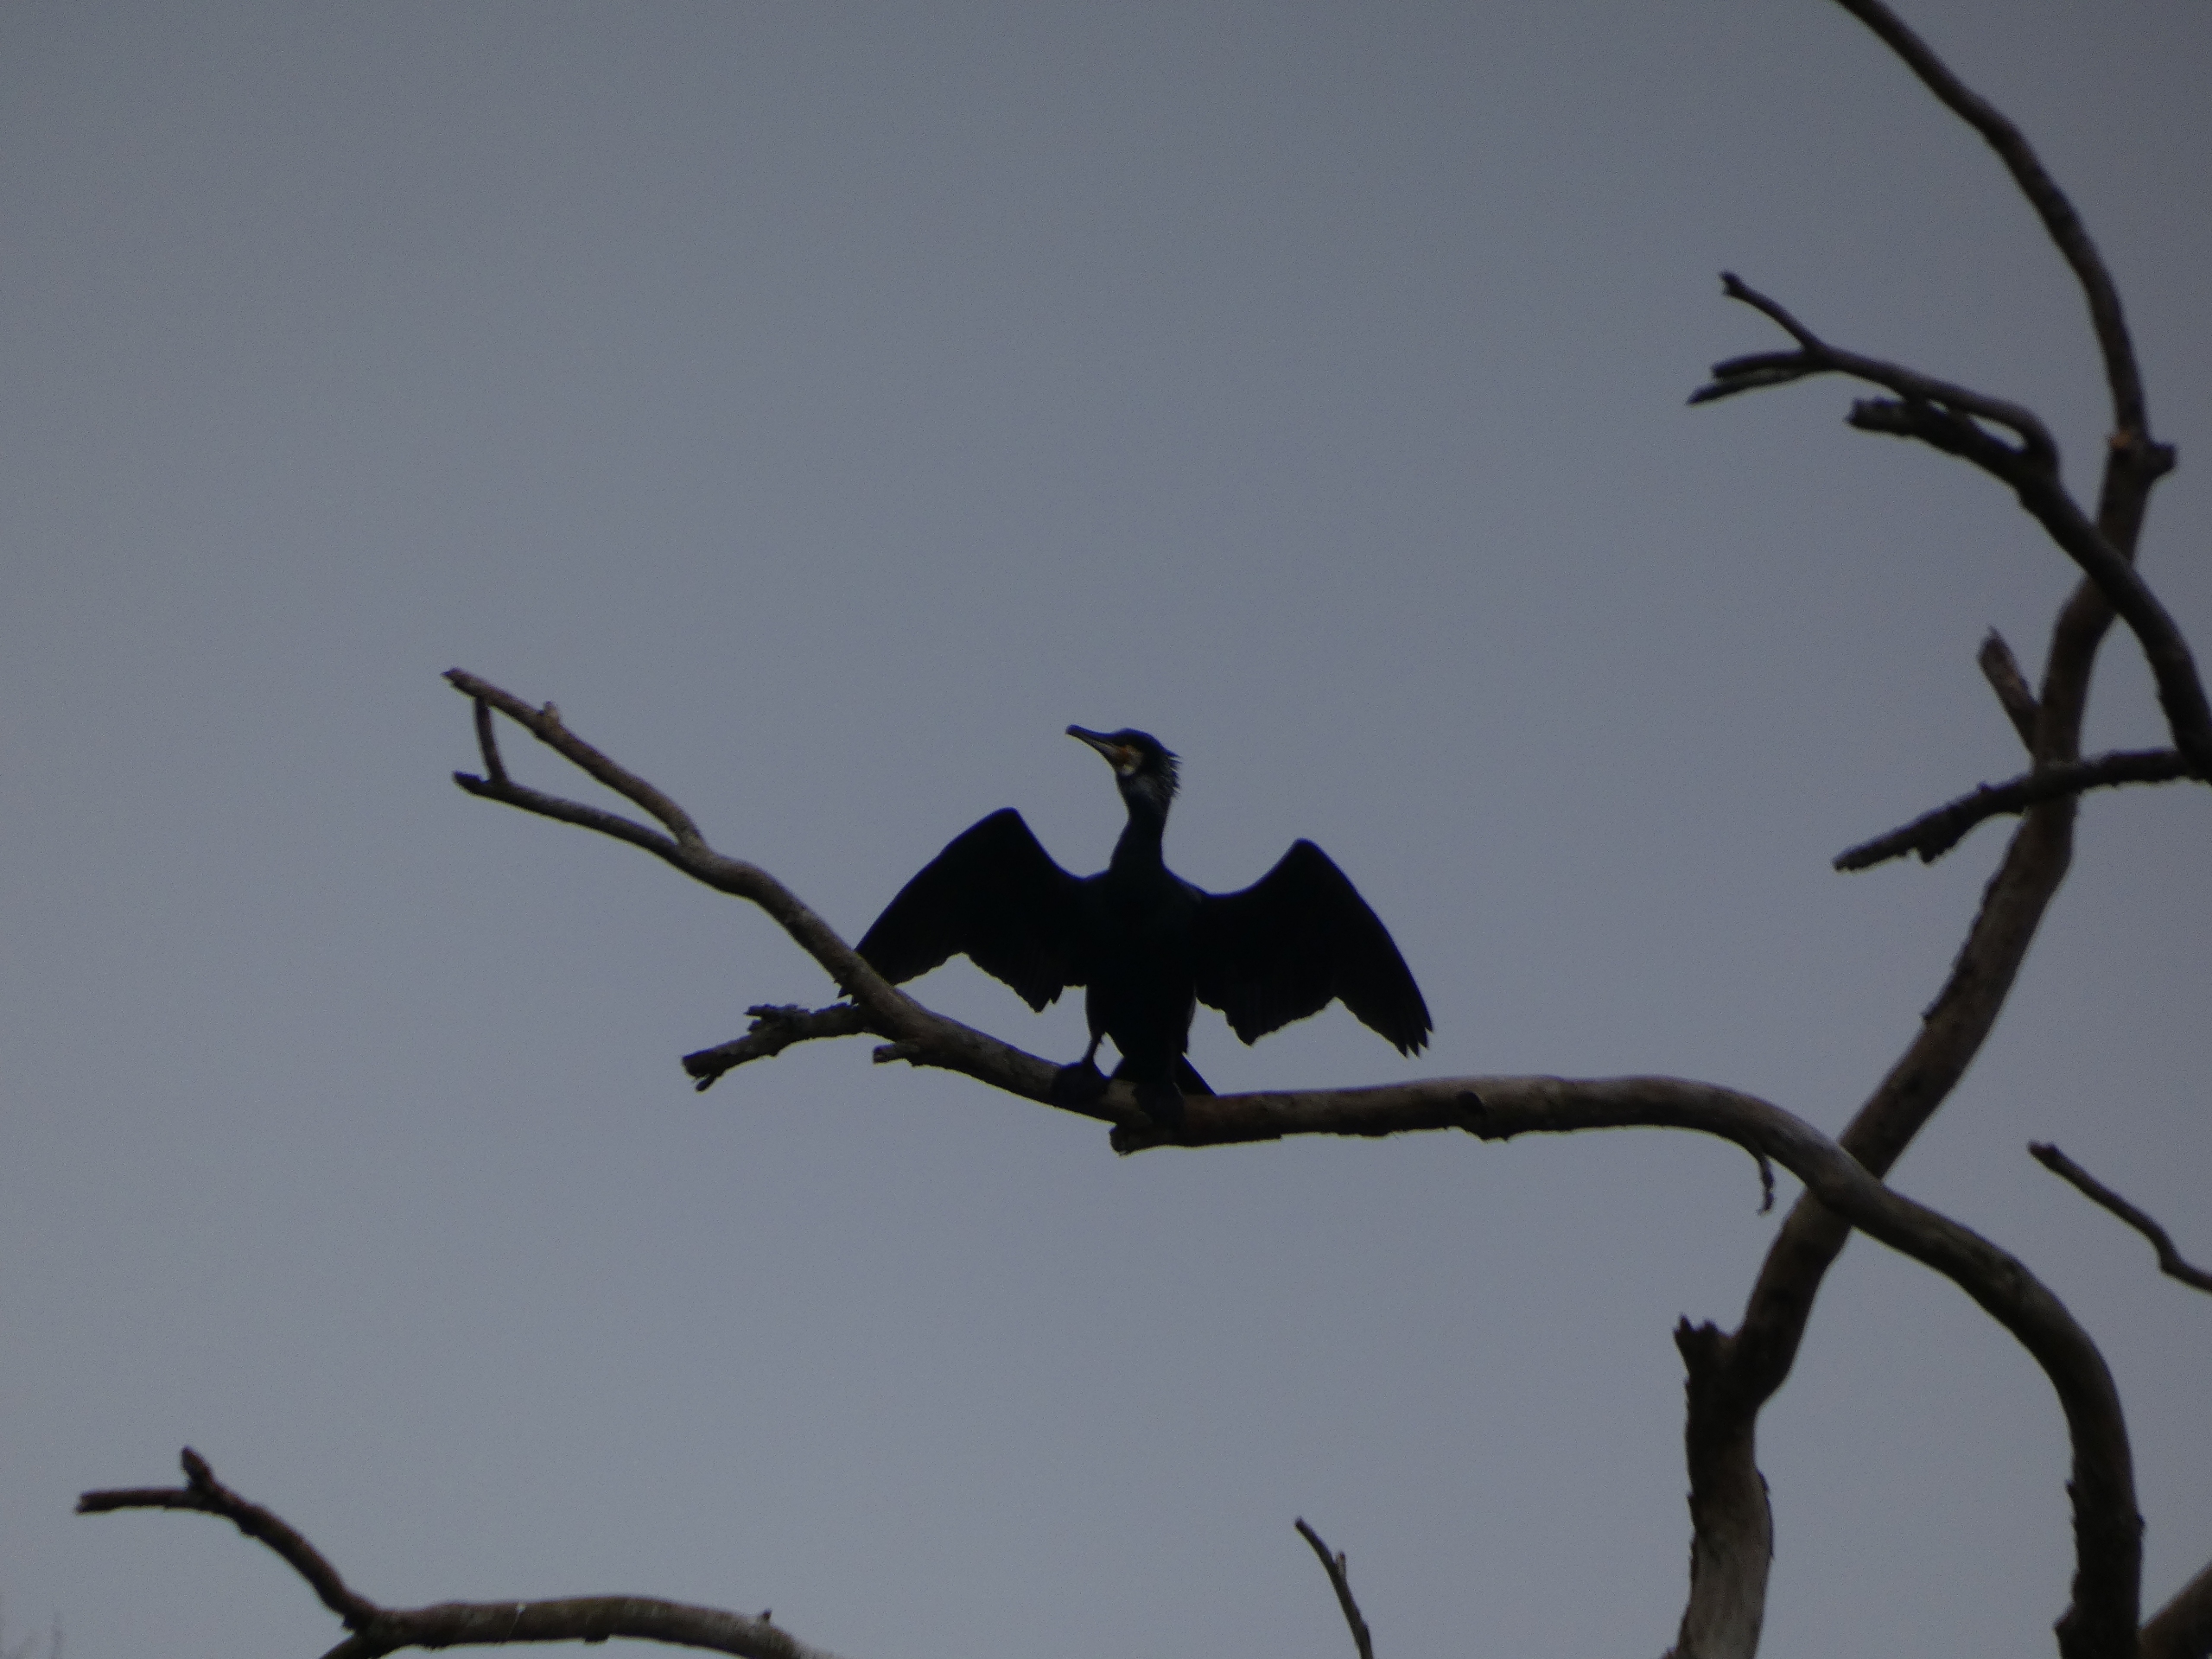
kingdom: Animalia
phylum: Chordata
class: Aves
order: Suliformes
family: Phalacrocoracidae
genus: Phalacrocorax
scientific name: Phalacrocorax carbo
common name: Skarv
